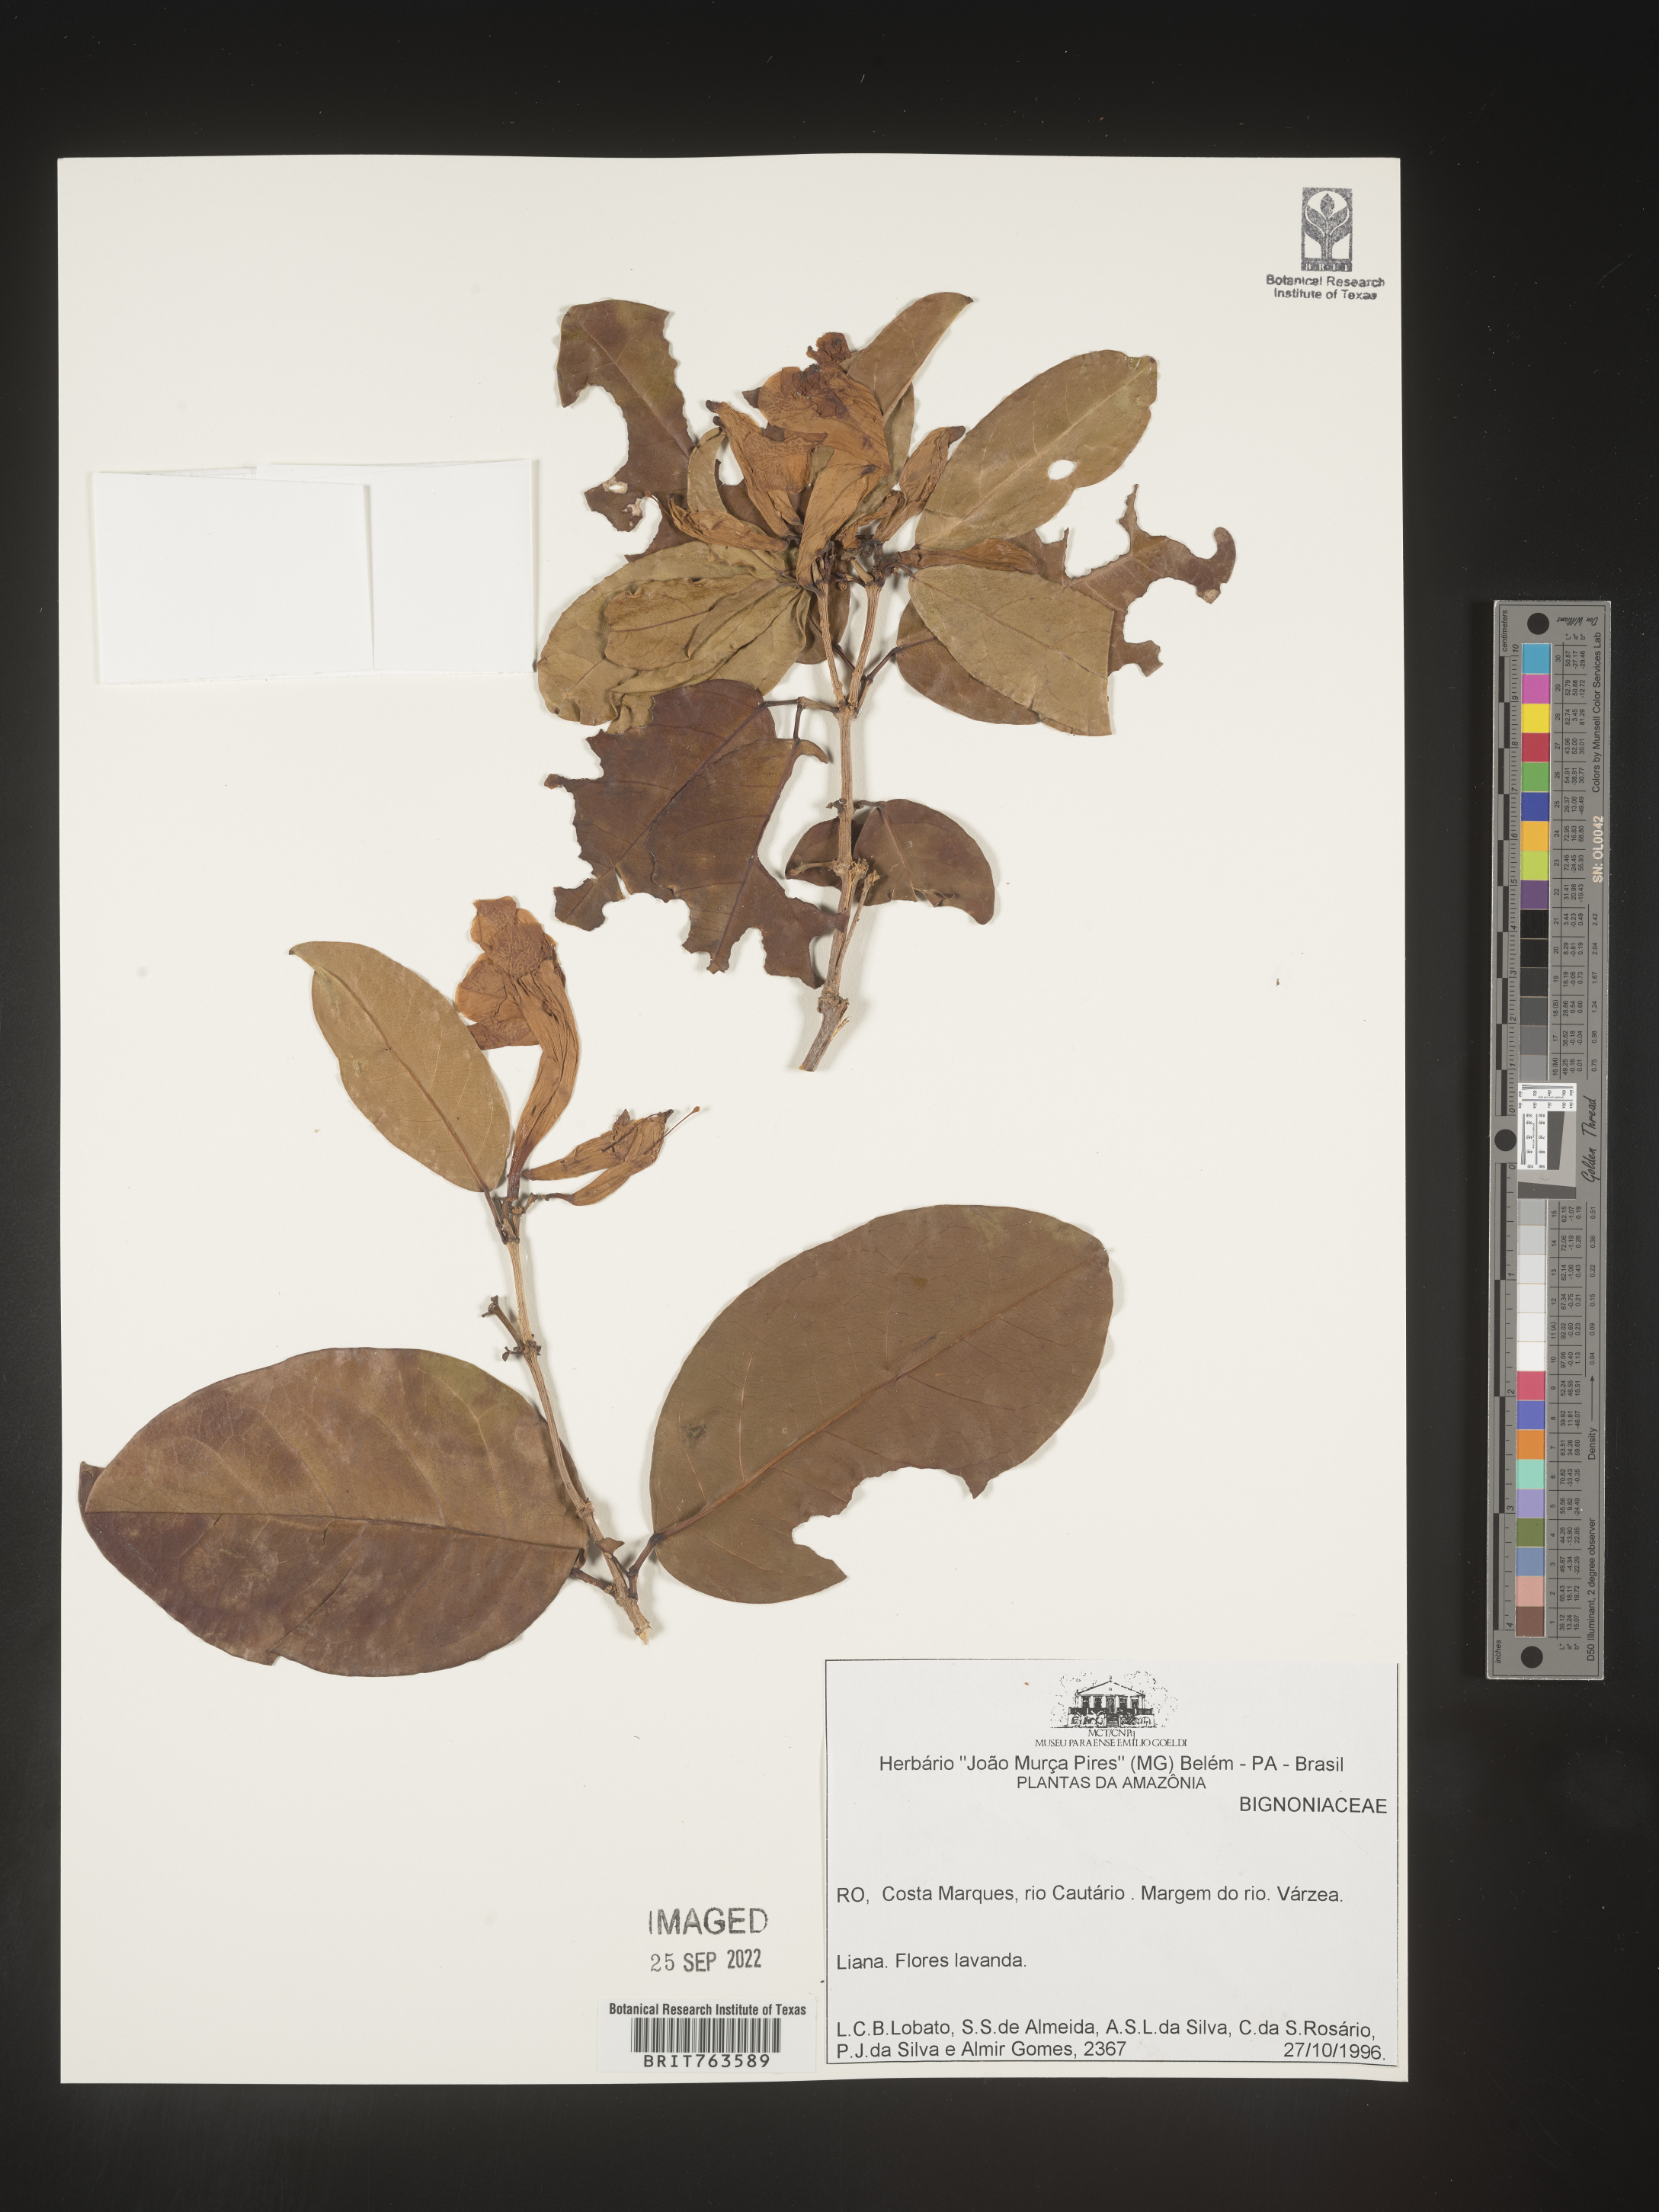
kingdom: Plantae
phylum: Tracheophyta
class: Magnoliopsida
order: Lamiales
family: Bignoniaceae
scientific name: Bignoniaceae
